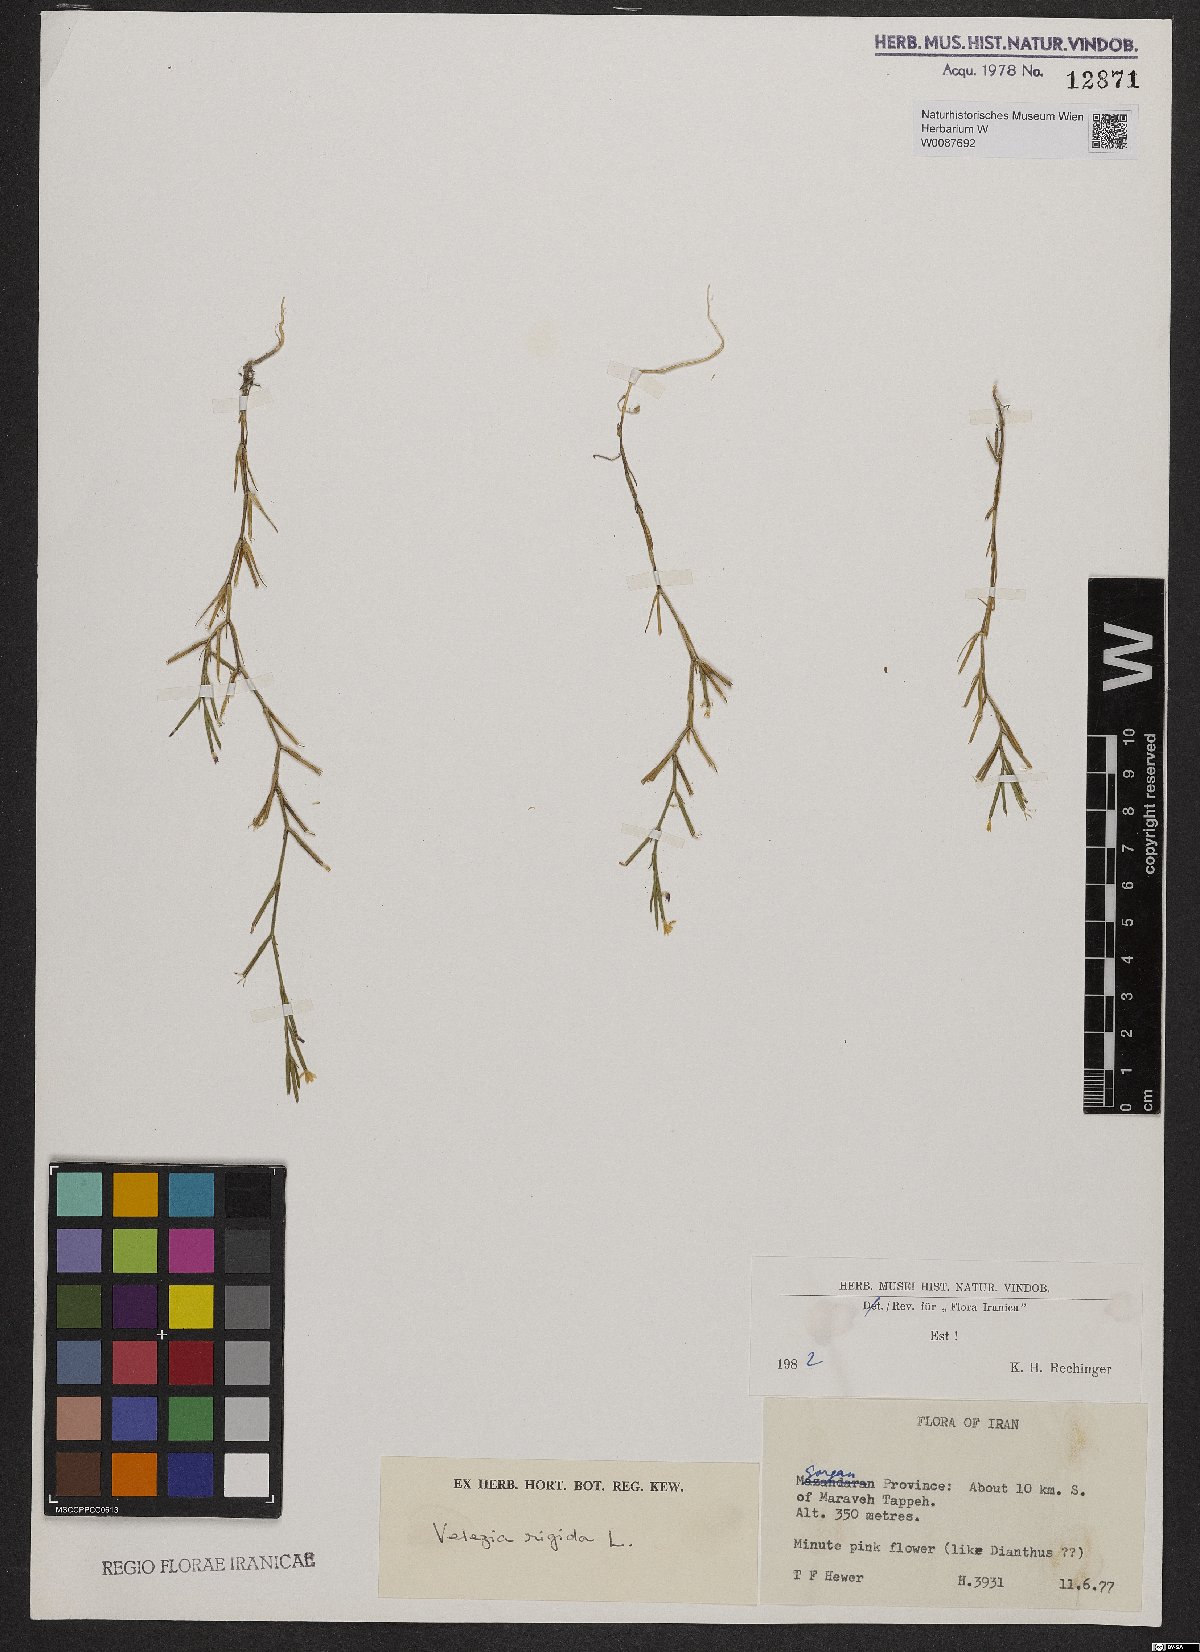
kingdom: Plantae
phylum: Tracheophyta
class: Magnoliopsida
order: Caryophyllales
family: Caryophyllaceae
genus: Dianthus
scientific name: Dianthus nudiflorus
